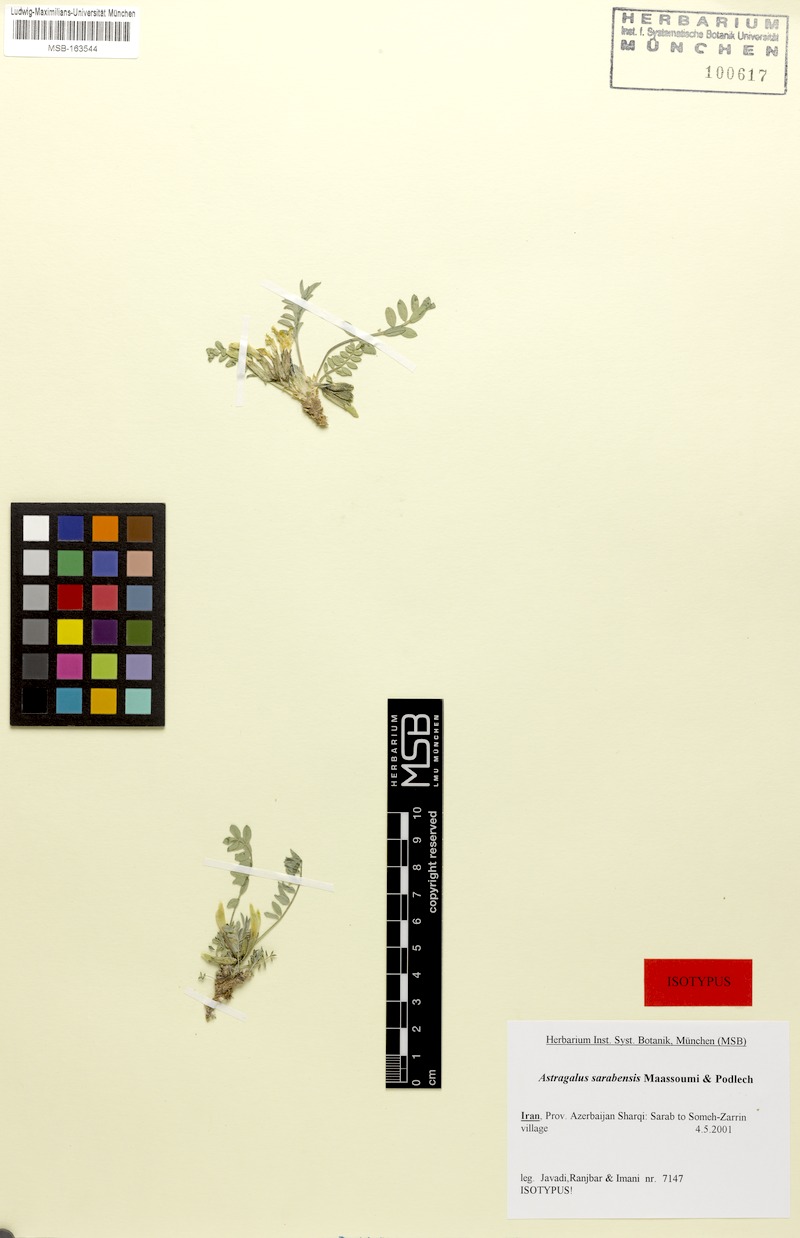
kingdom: Plantae
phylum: Tracheophyta
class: Magnoliopsida
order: Fabales
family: Fabaceae
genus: Astragalus
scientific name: Astragalus sarabensis
